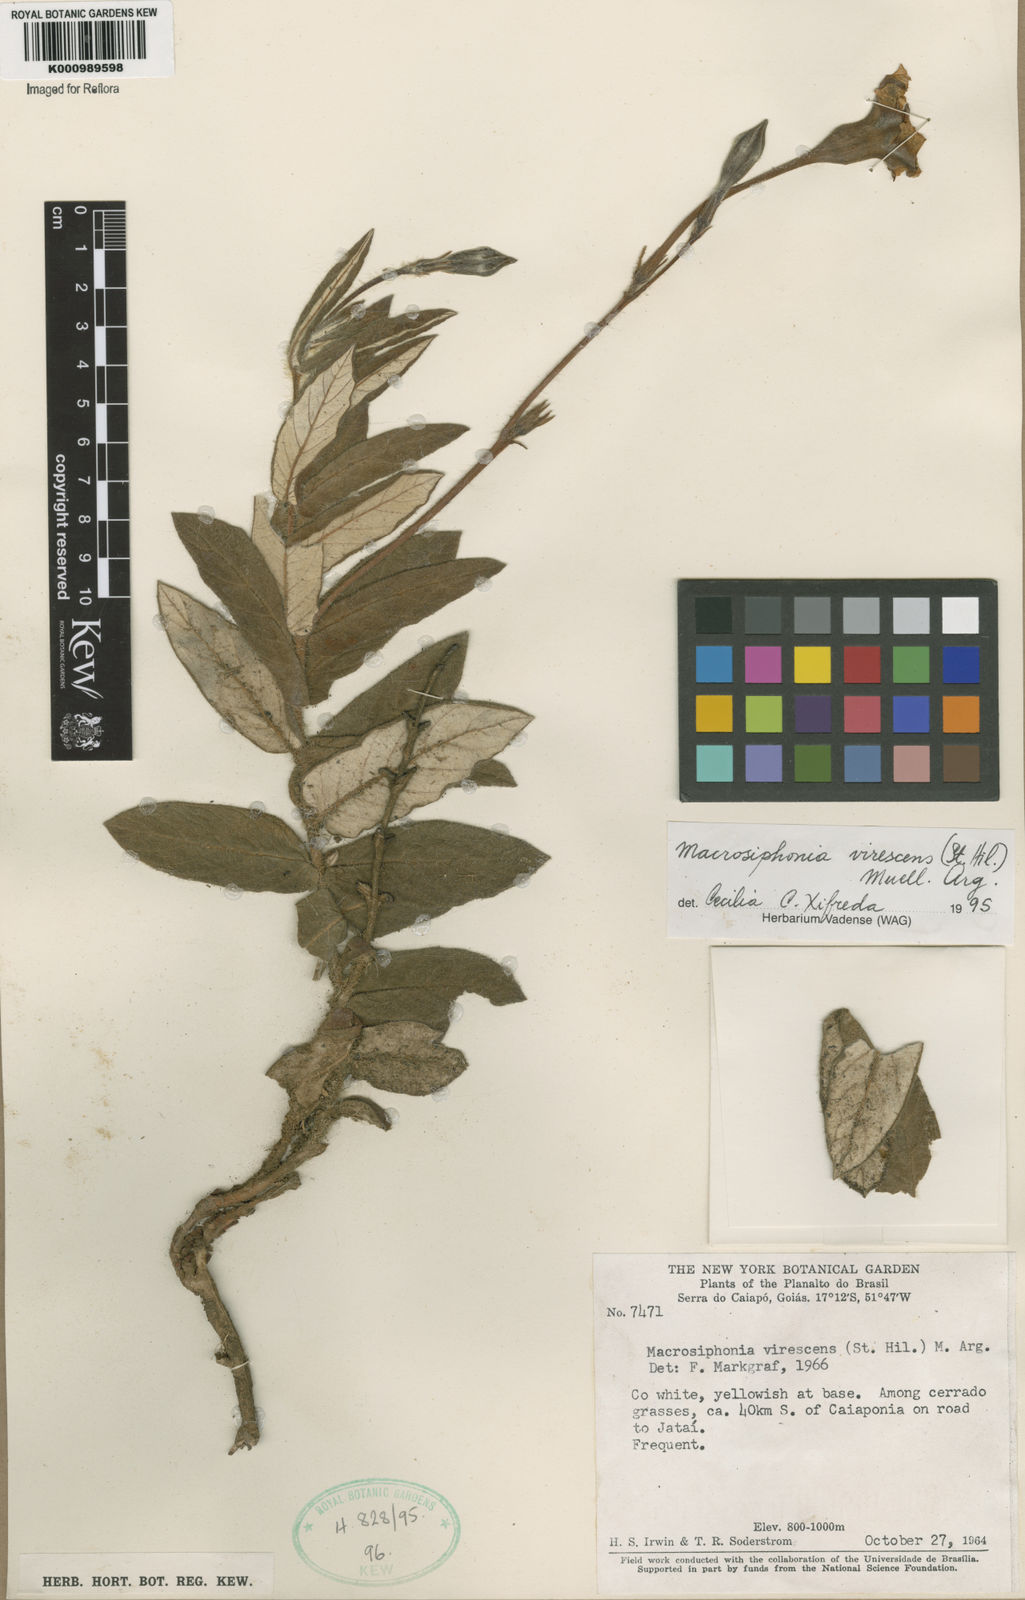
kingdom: Plantae
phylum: Tracheophyta
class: Magnoliopsida
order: Gentianales
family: Apocynaceae
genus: Mandevilla
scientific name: Mandevilla virescens
